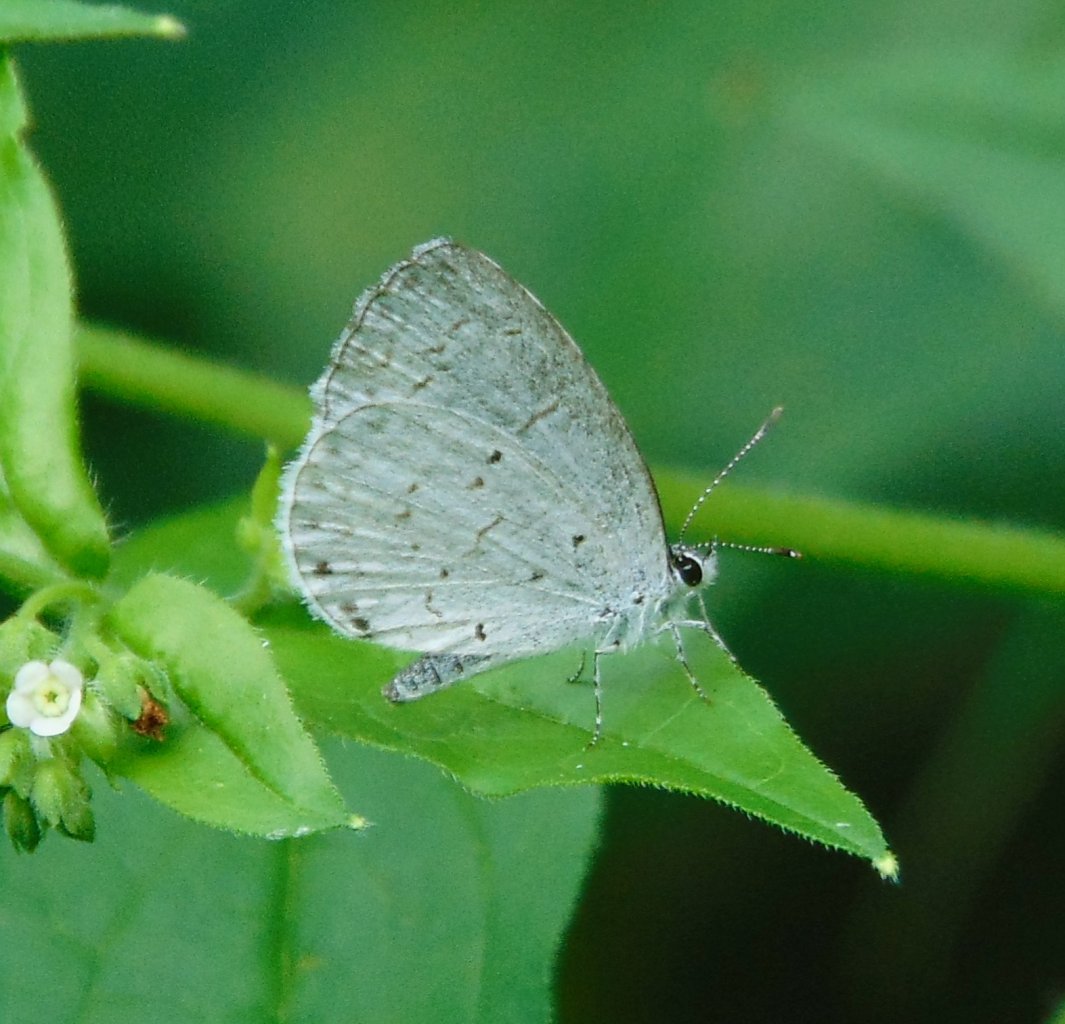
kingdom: Animalia
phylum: Arthropoda
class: Insecta
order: Lepidoptera
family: Lycaenidae
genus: Cyaniris
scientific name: Cyaniris neglecta
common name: Summer Azure
